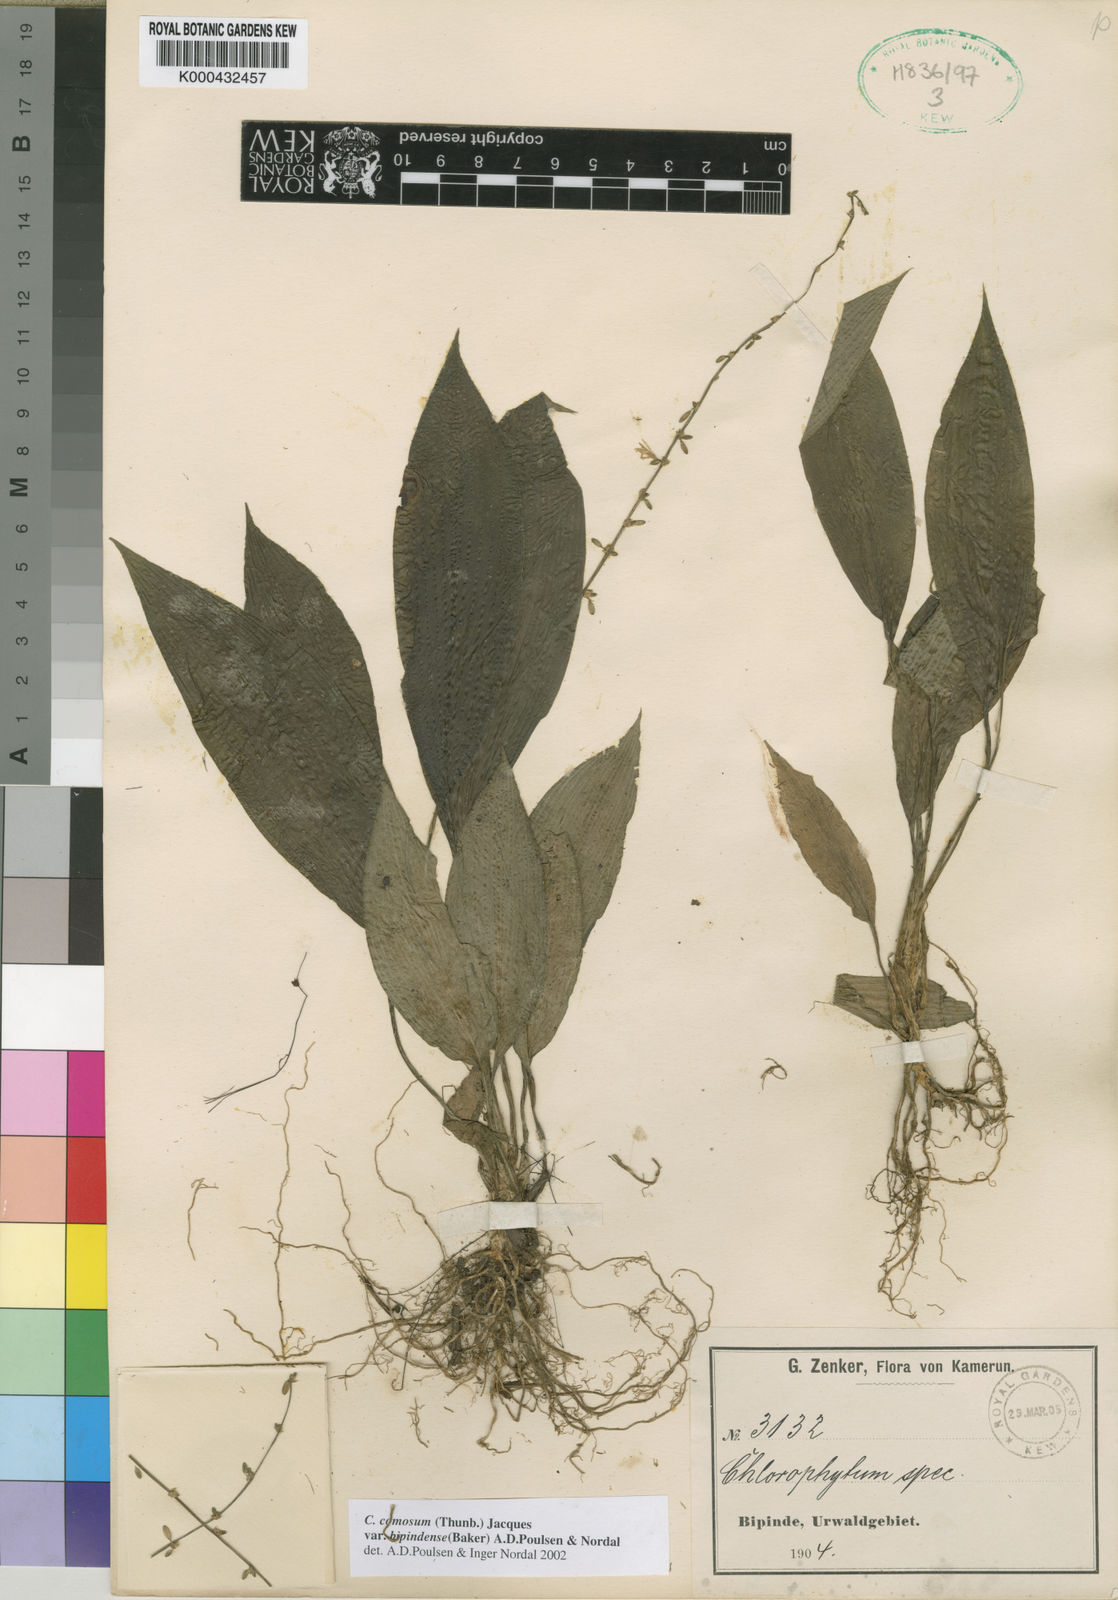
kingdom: Plantae
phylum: Tracheophyta
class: Liliopsida
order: Asparagales
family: Asparagaceae
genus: Chlorophytum
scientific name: Chlorophytum sparsiflorum
